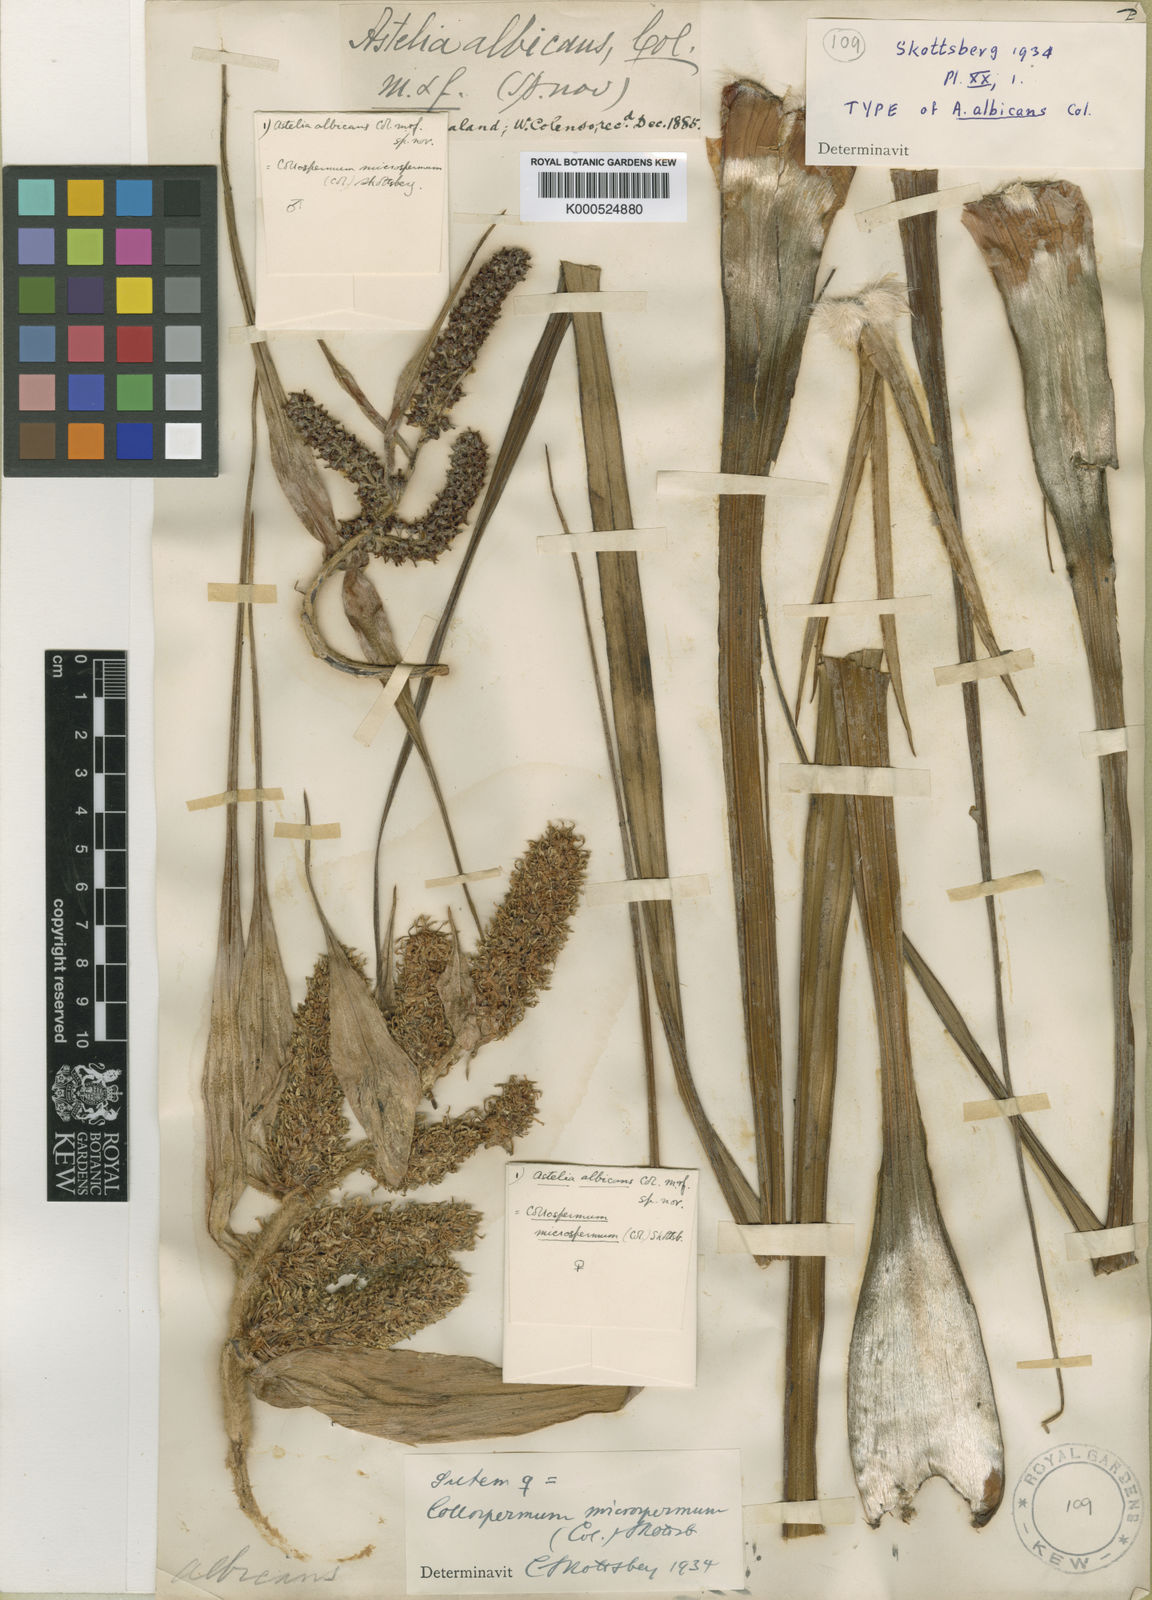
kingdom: Plantae
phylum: Tracheophyta
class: Liliopsida
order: Asparagales
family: Asteliaceae
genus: Astelia
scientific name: Astelia microsperma
